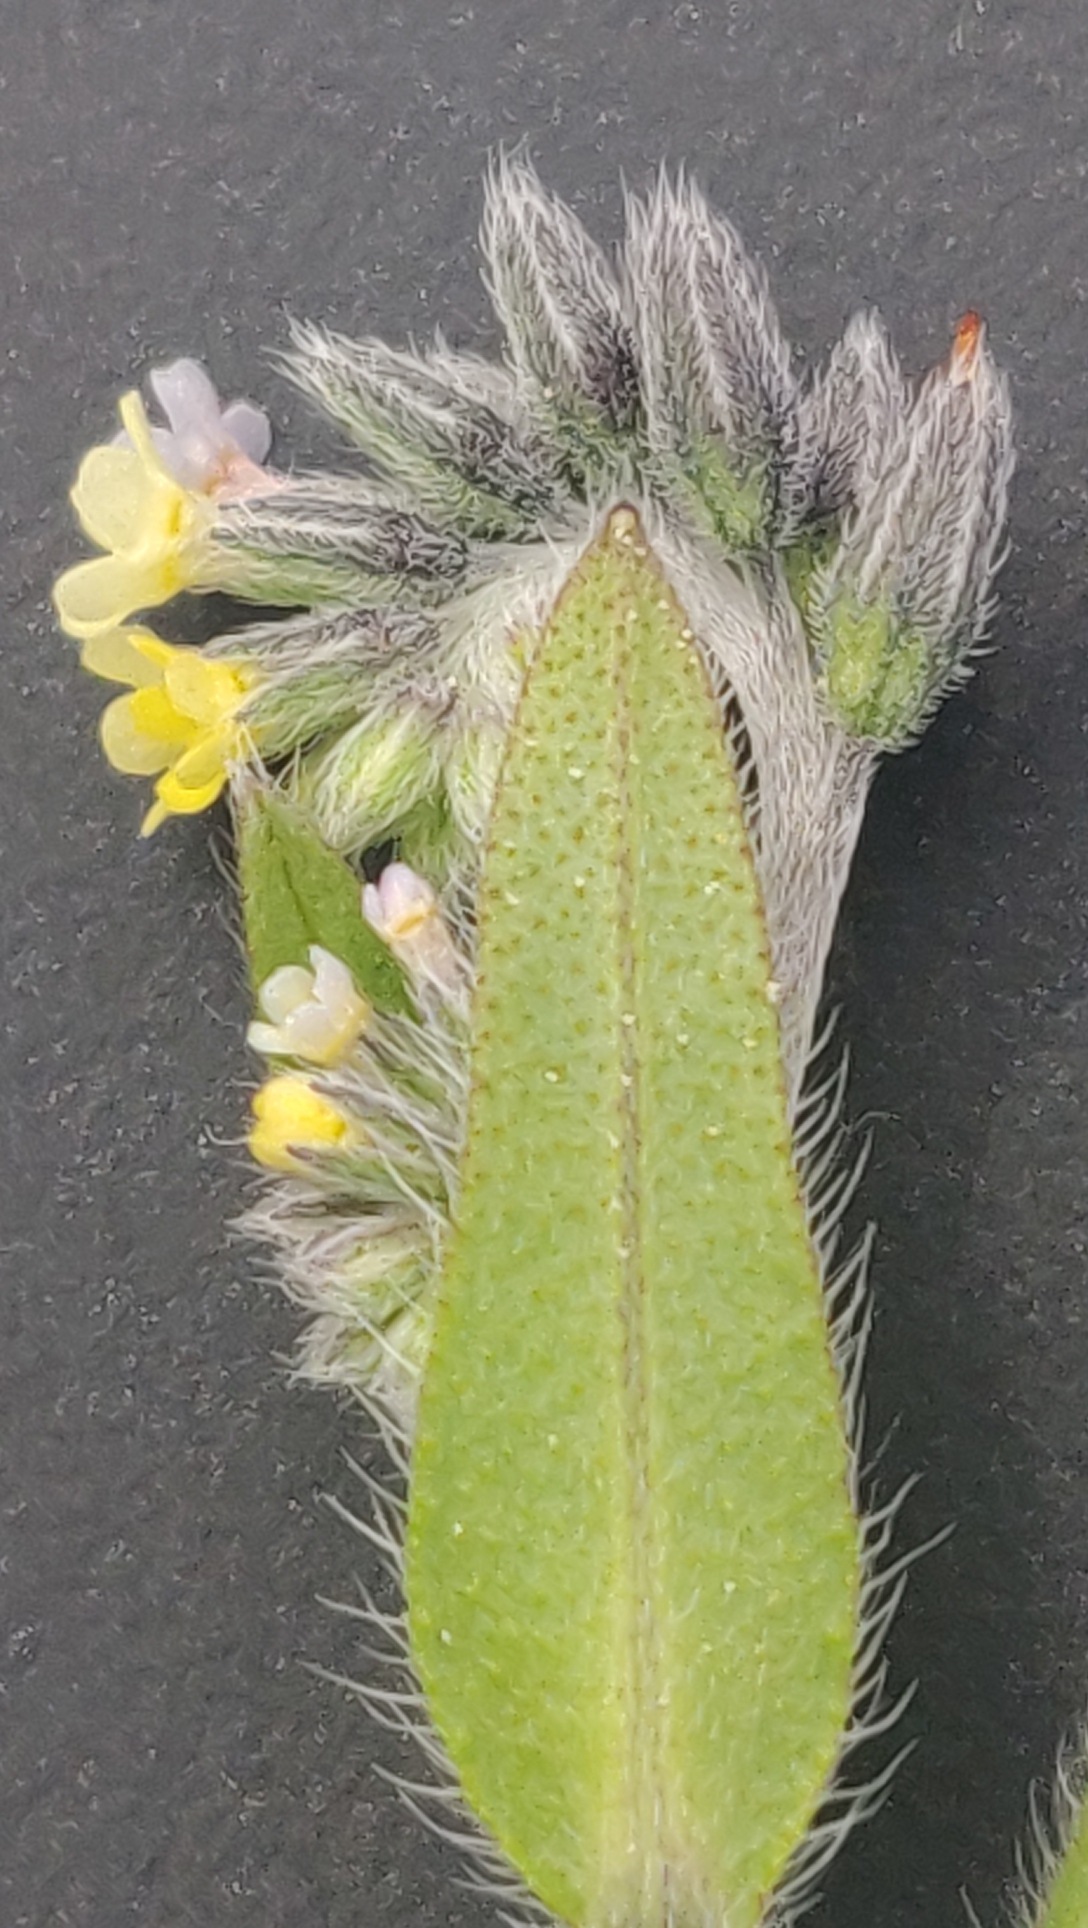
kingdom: Plantae
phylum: Tracheophyta
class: Magnoliopsida
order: Boraginales
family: Boraginaceae
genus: Myosotis
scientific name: Myosotis discolor
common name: Forskelligfarvet forglemmigej
